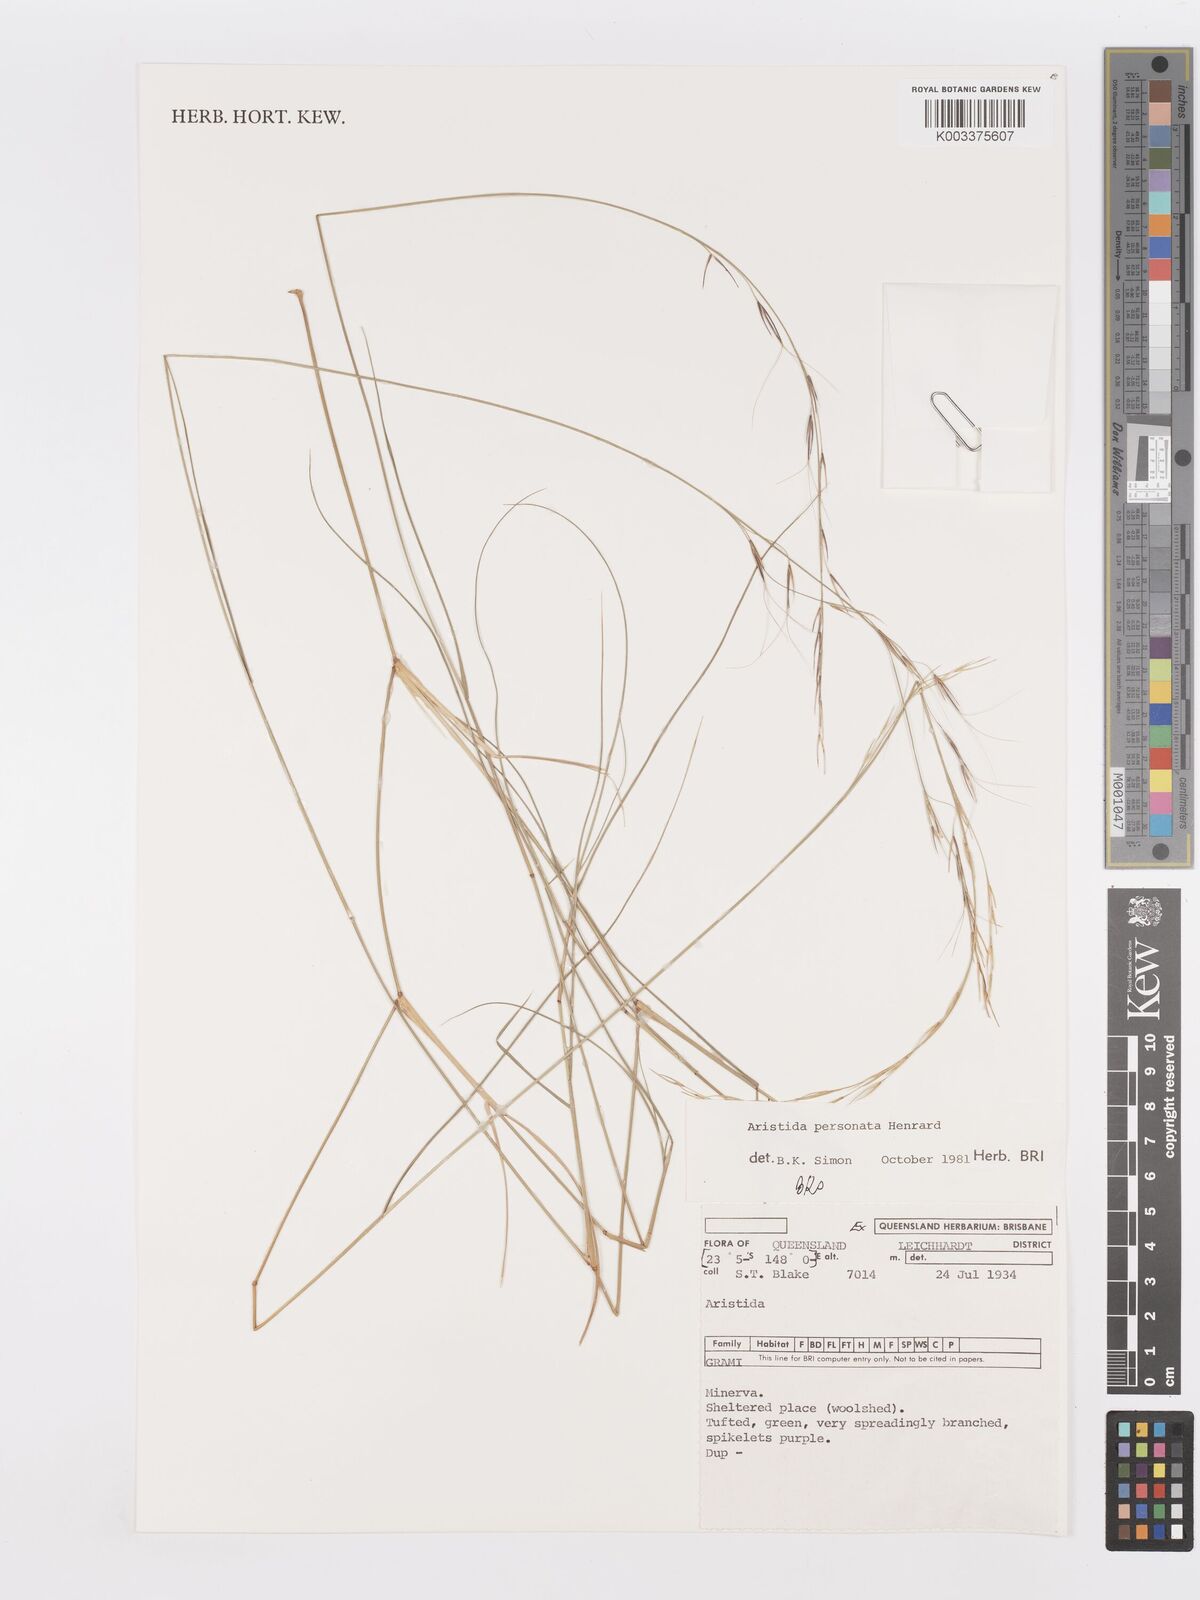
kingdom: Plantae
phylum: Tracheophyta
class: Liliopsida
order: Poales
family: Poaceae
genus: Aristida
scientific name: Aristida personata
